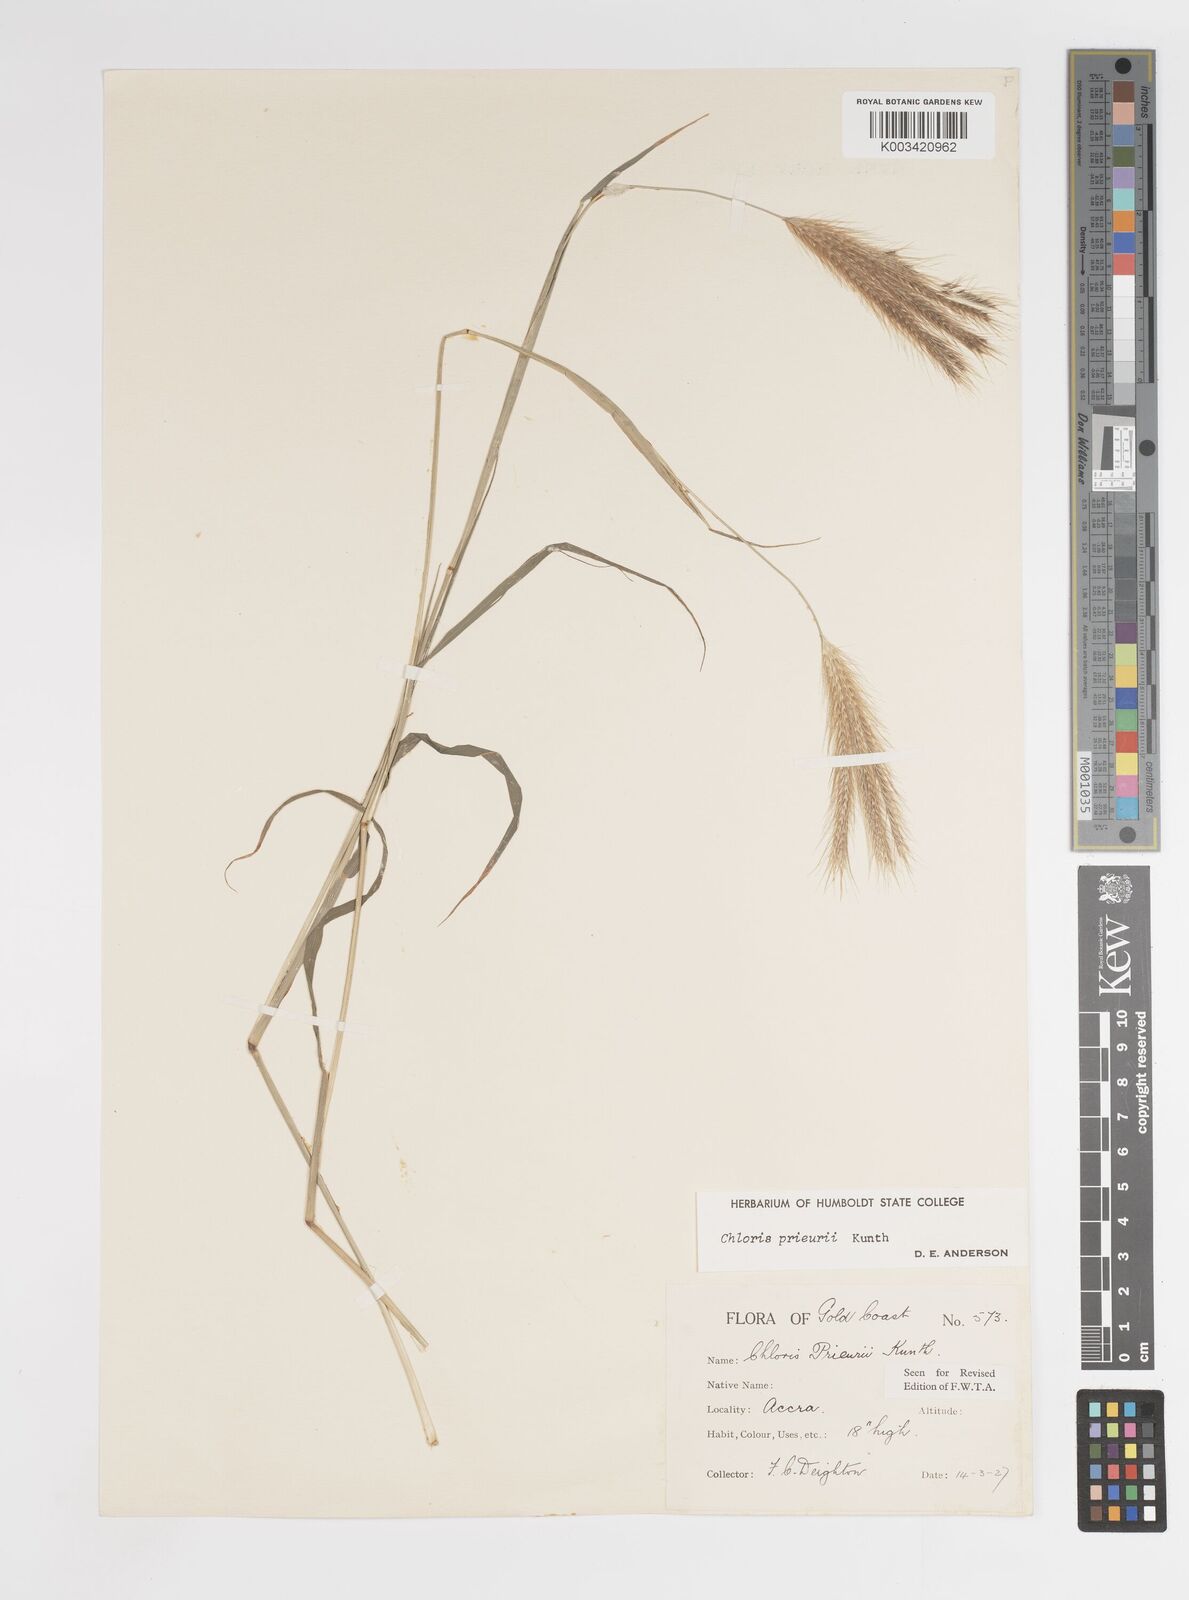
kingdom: Plantae
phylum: Tracheophyta
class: Liliopsida
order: Poales
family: Poaceae
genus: Enteropogon
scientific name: Enteropogon prieurii
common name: Prieur's umbrellagrass
